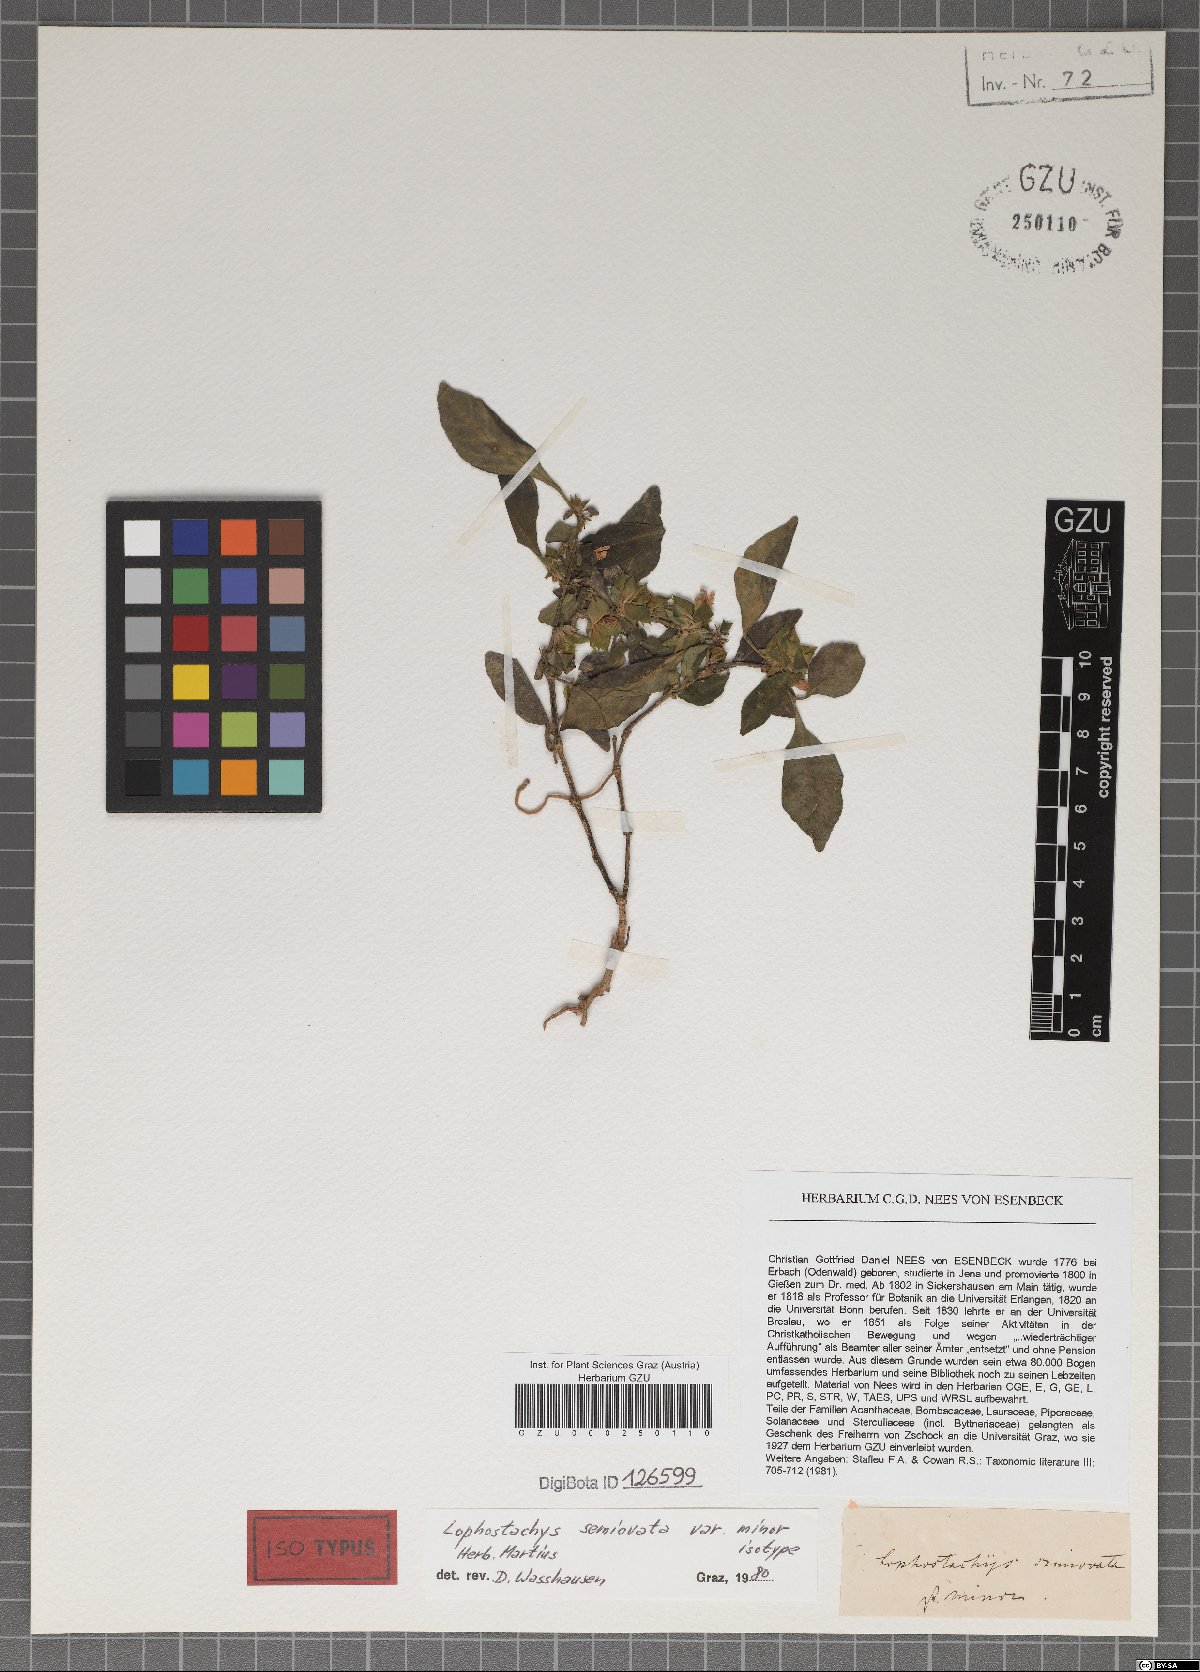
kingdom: Plantae
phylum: Tracheophyta
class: Magnoliopsida
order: Lamiales
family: Acanthaceae
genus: Lepidagathis
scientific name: Lepidagathis nemoralis
